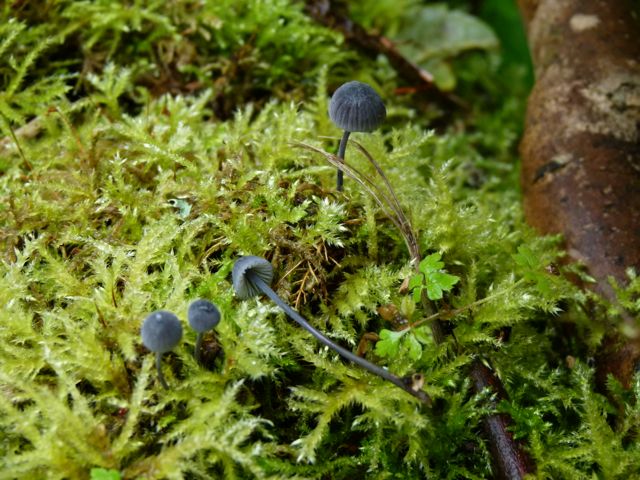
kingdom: Fungi
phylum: Basidiomycota
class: Agaricomycetes
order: Agaricales
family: Mycenaceae
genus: Mycena
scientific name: Mycena pseudocorticola
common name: gråblå bark-huesvamp
